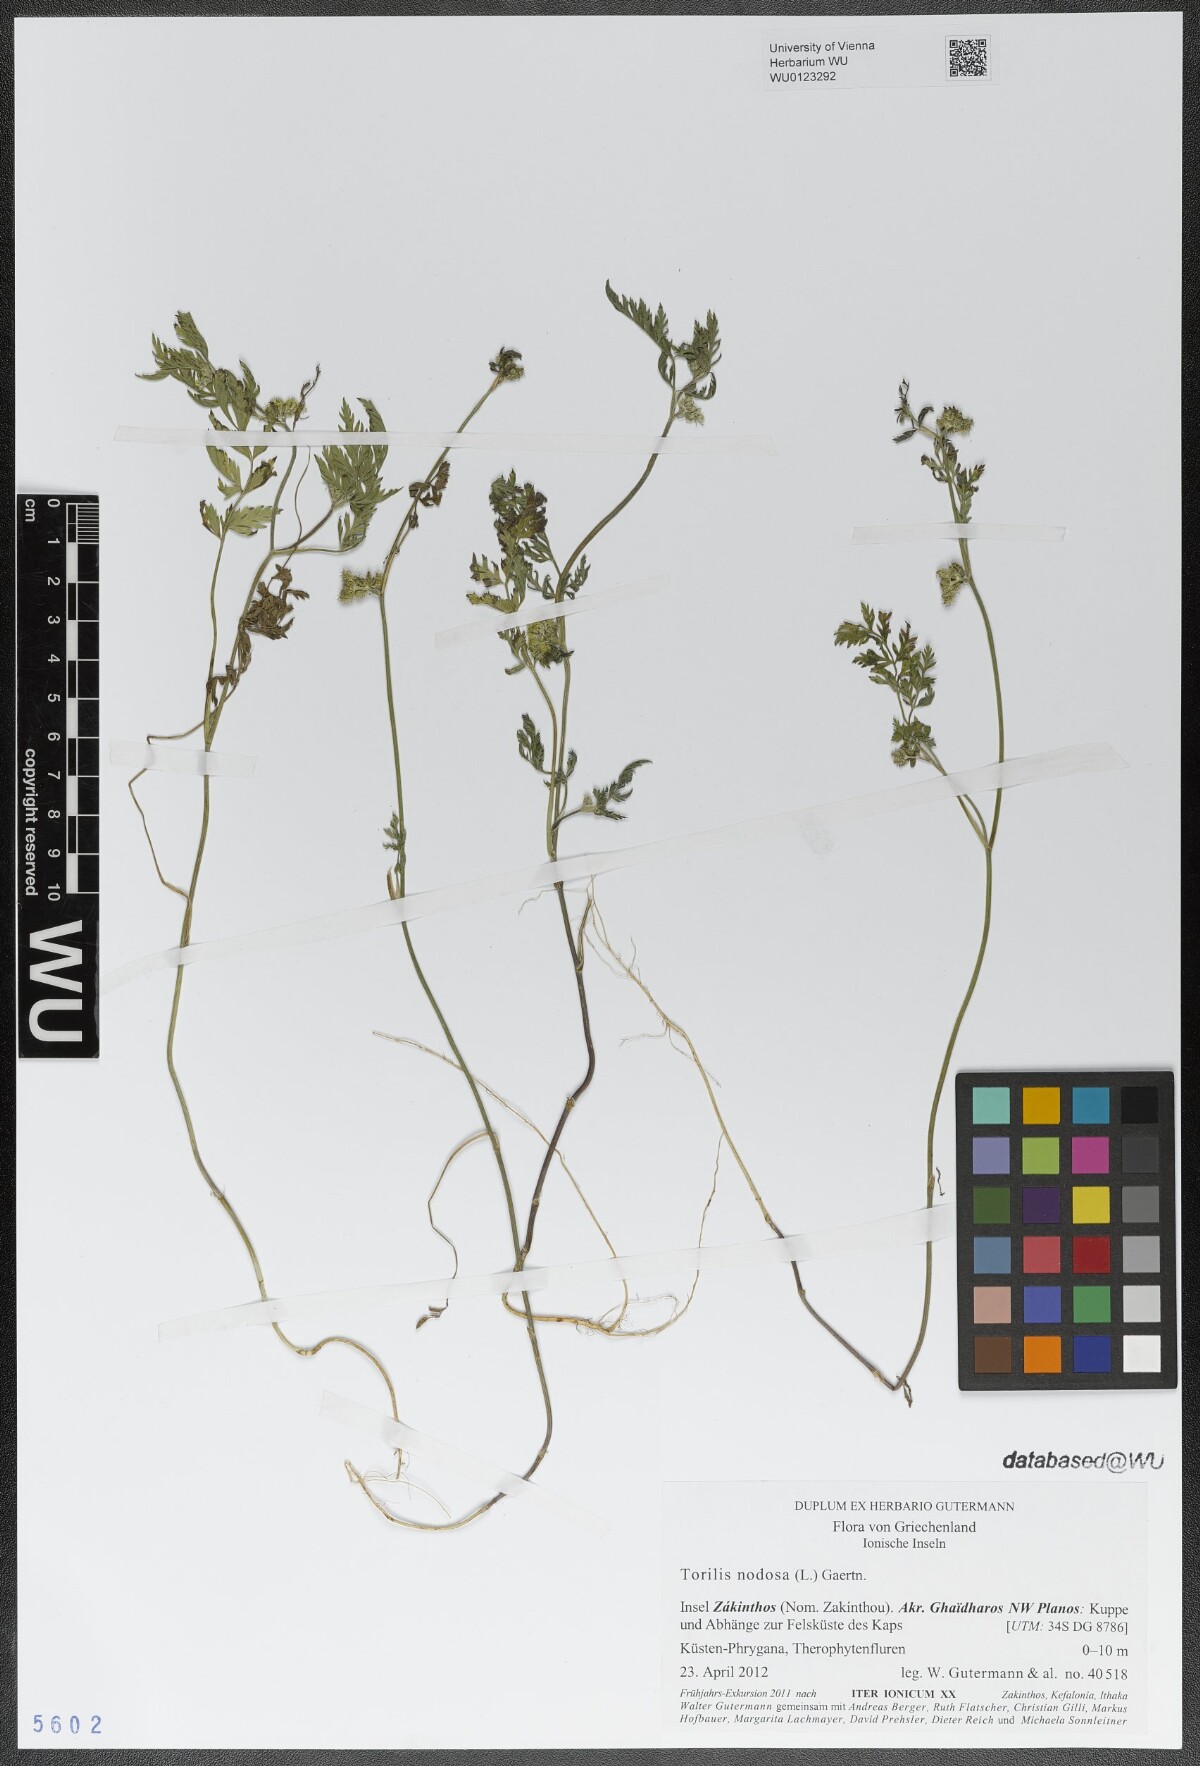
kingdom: Plantae
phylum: Tracheophyta
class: Magnoliopsida
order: Apiales
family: Apiaceae
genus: Torilis
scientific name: Torilis nodosa
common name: Knotted hedge-parsley
